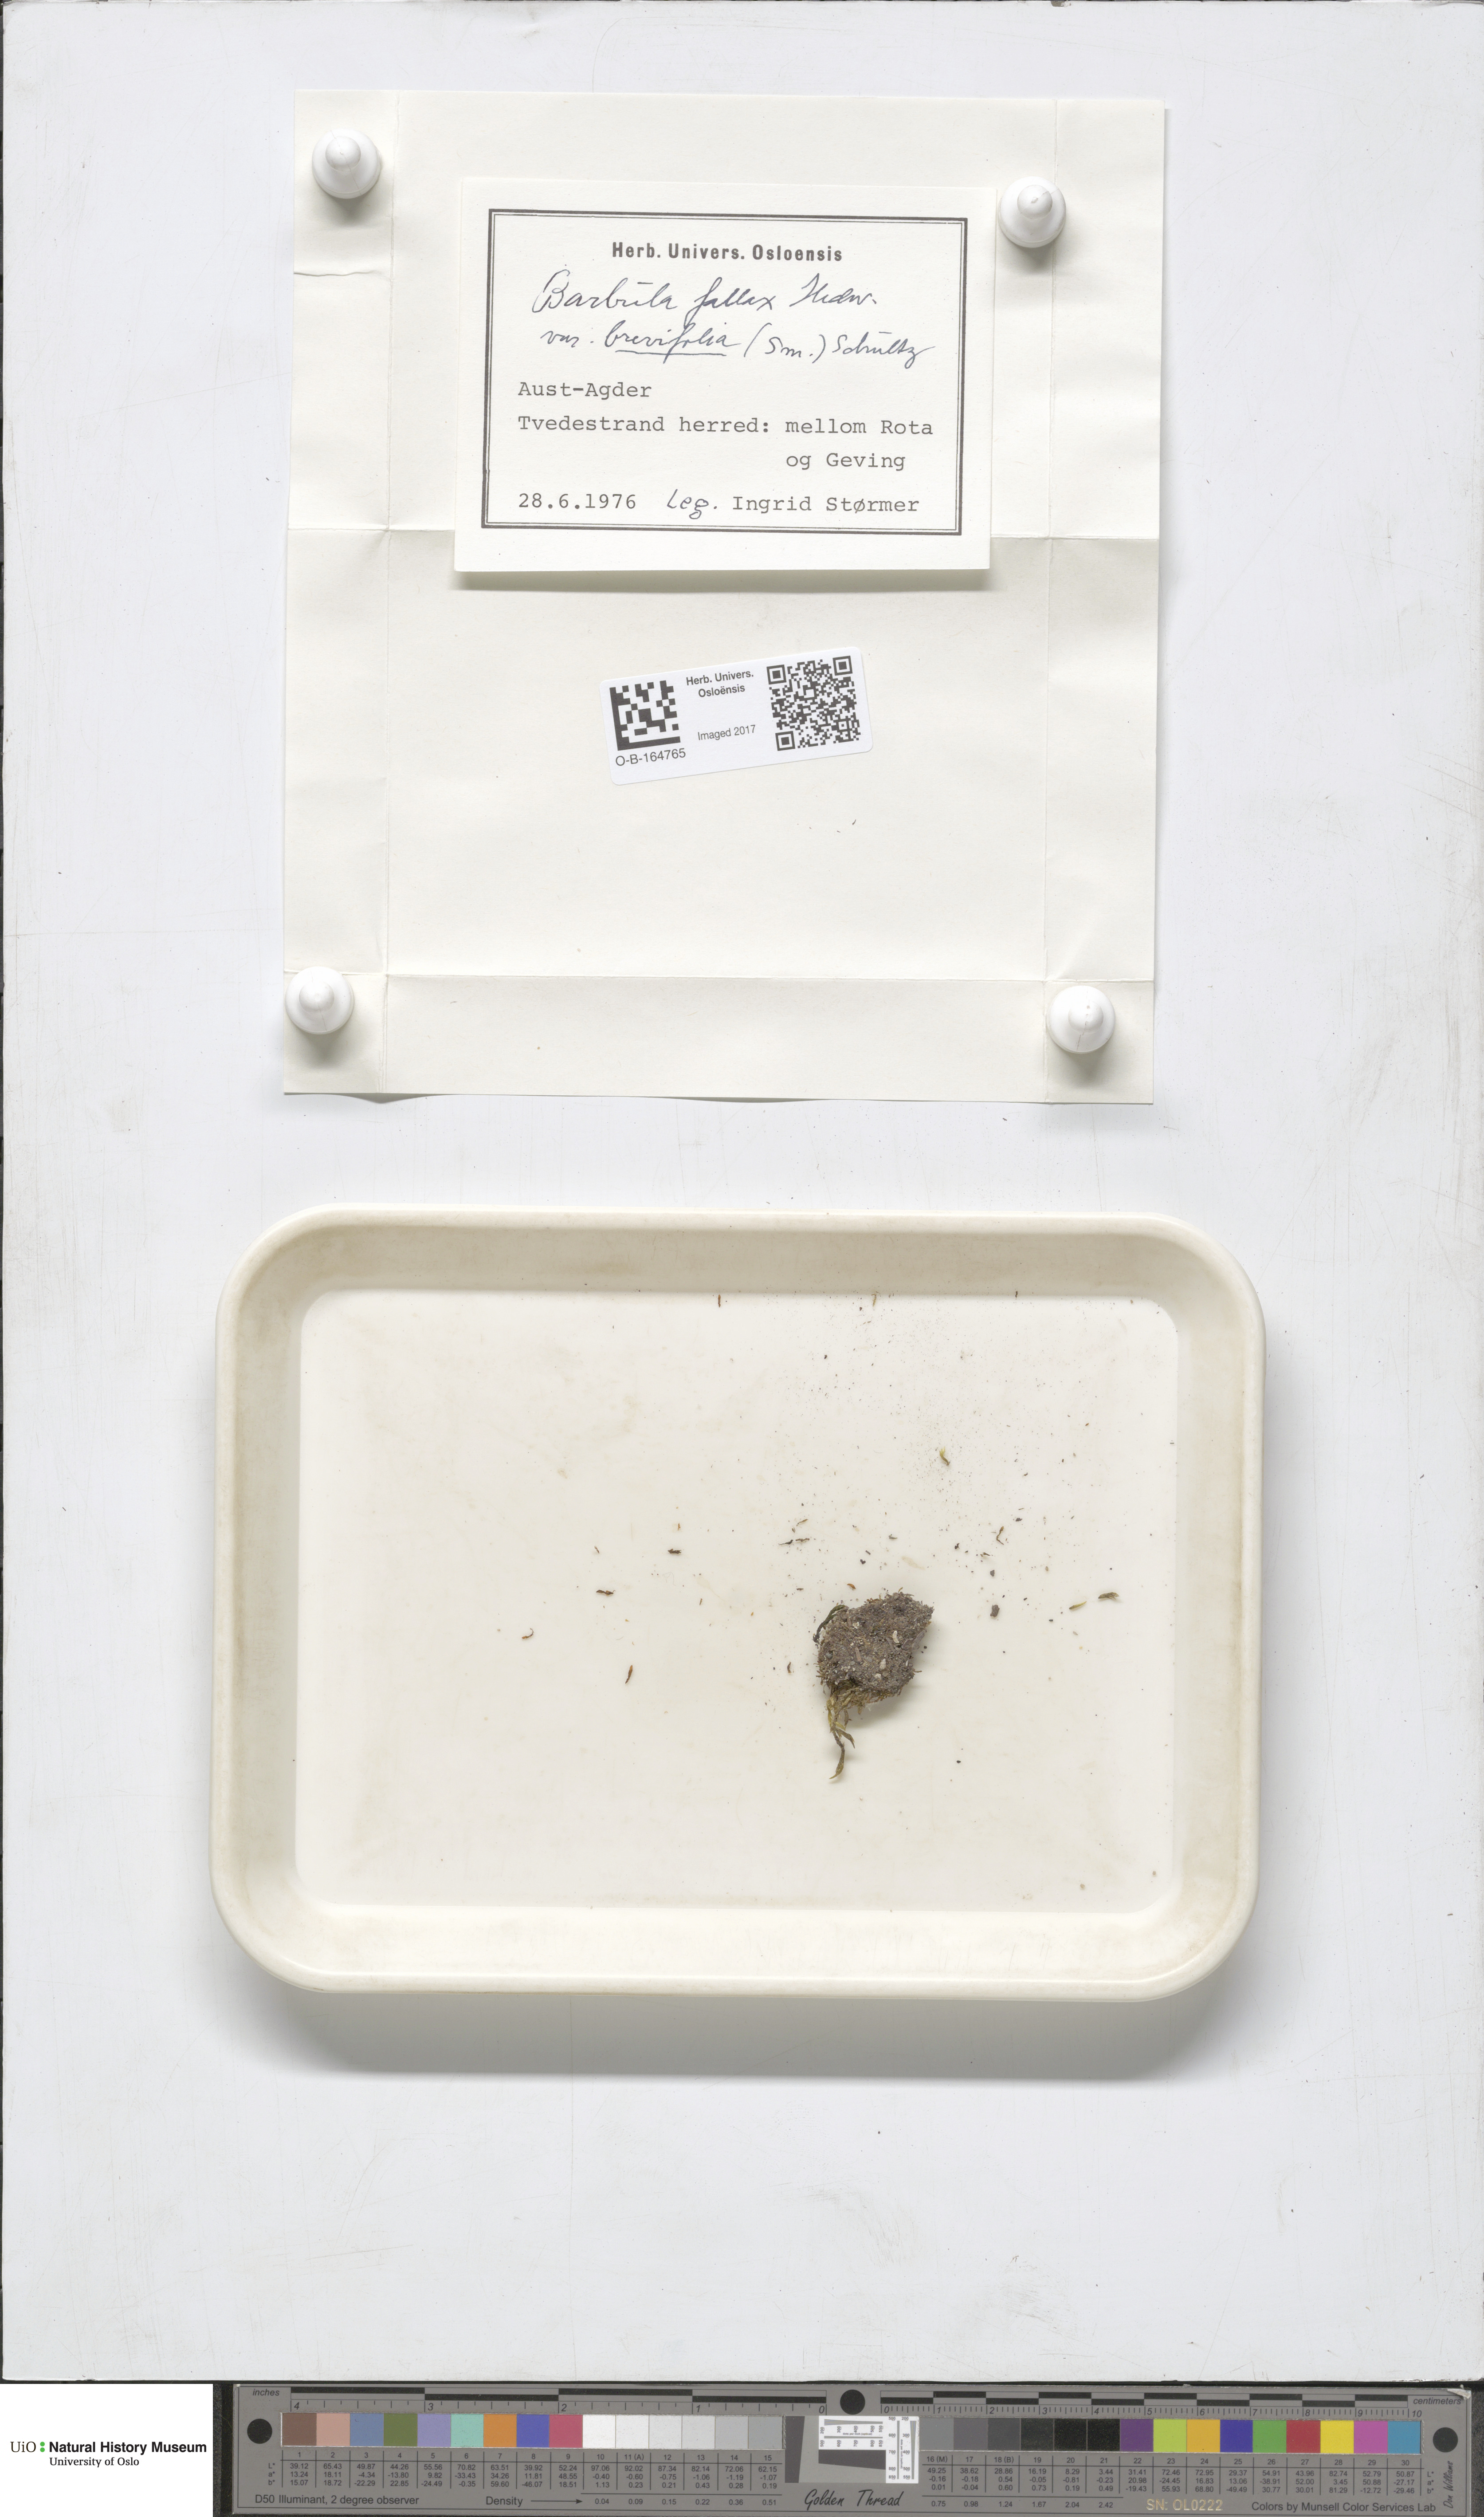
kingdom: Plantae
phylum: Bryophyta
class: Bryopsida
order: Pottiales
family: Pottiaceae
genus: Geheebia
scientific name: Geheebia fallax
